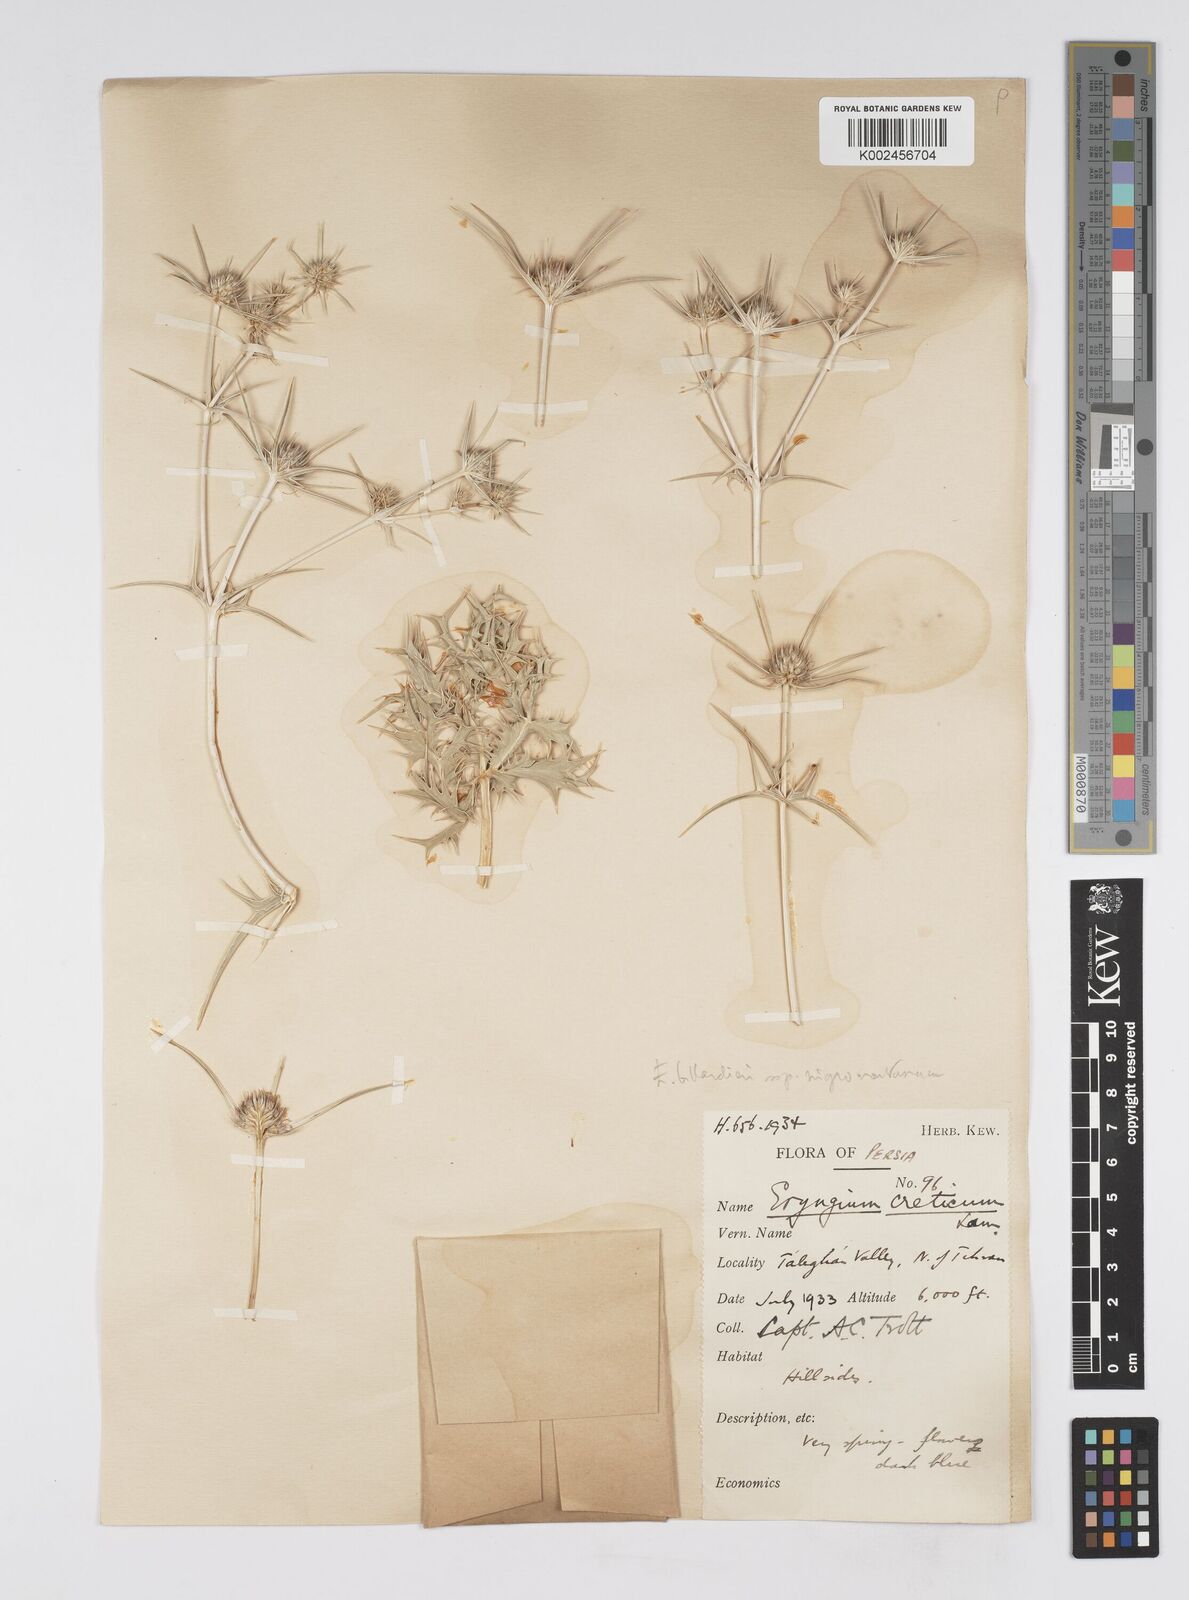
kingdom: Plantae
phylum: Tracheophyta
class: Magnoliopsida
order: Apiales
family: Apiaceae
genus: Eryngium
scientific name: Eryngium heldreichii
